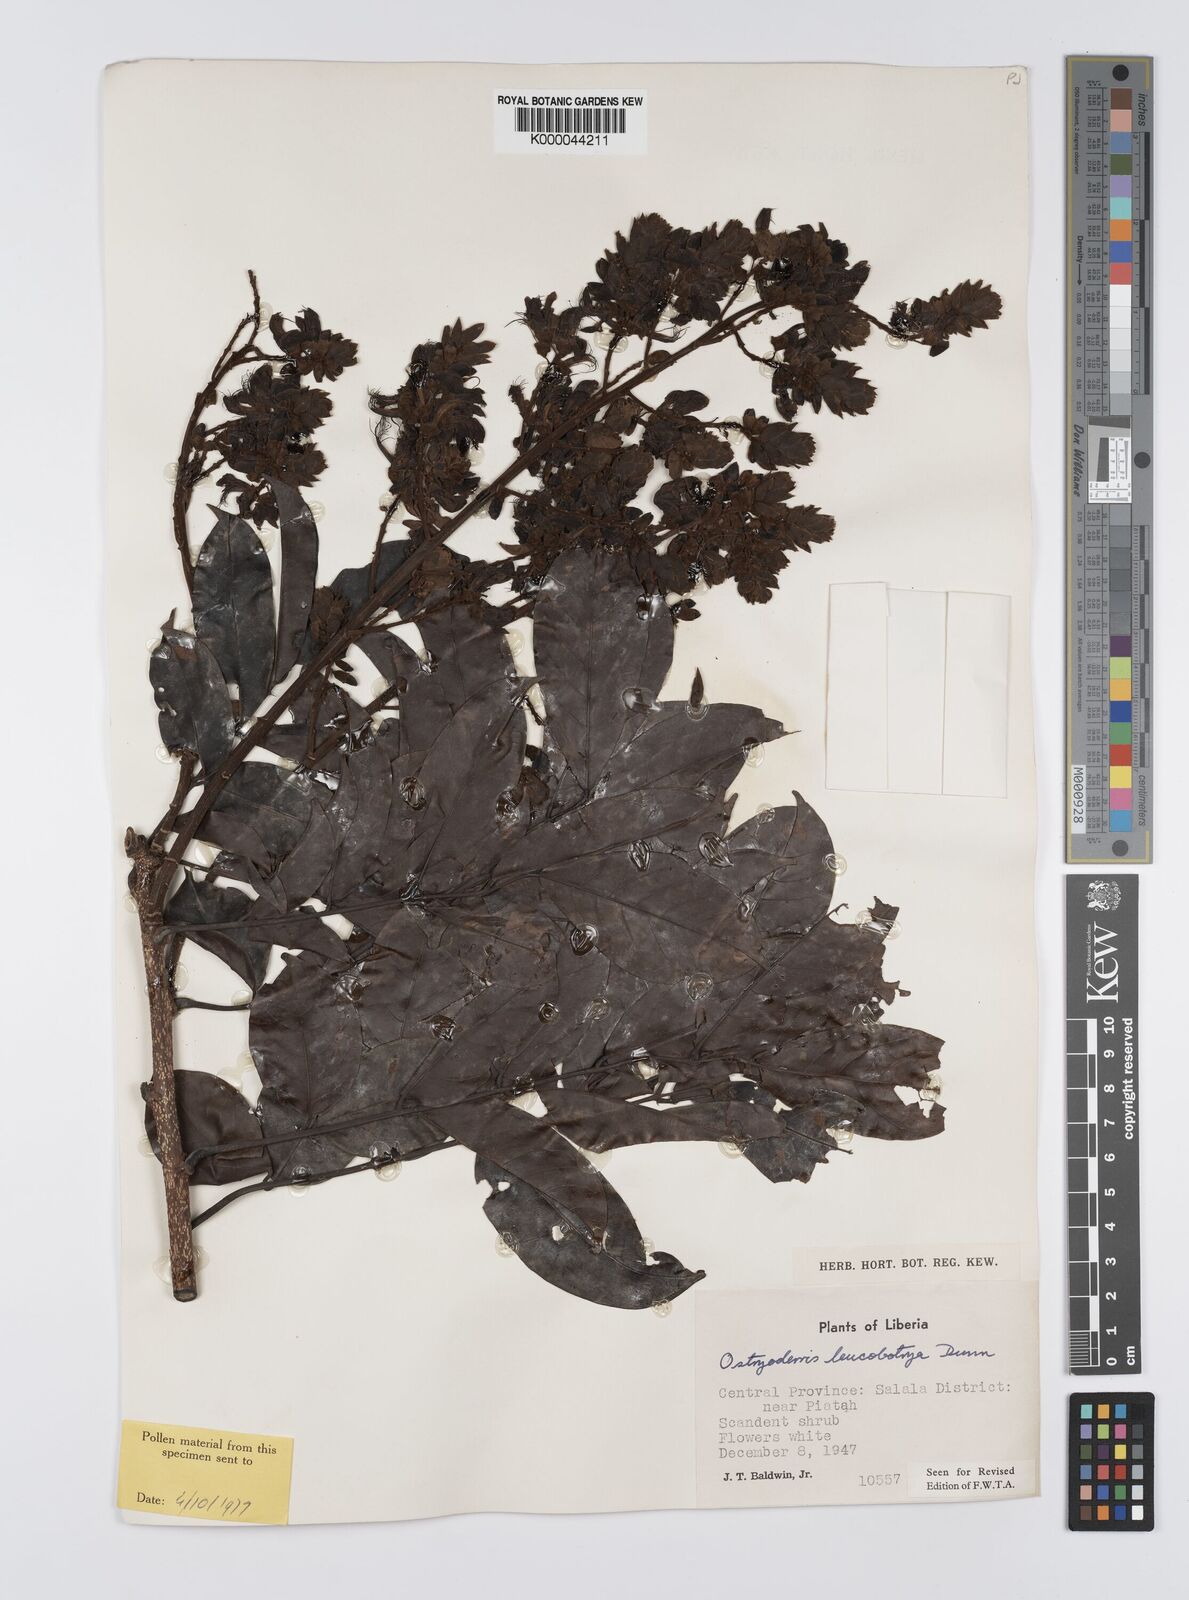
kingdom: Plantae
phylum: Tracheophyta
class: Magnoliopsida
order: Fabales
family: Fabaceae
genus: Aganope
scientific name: Aganope leucobotrya
